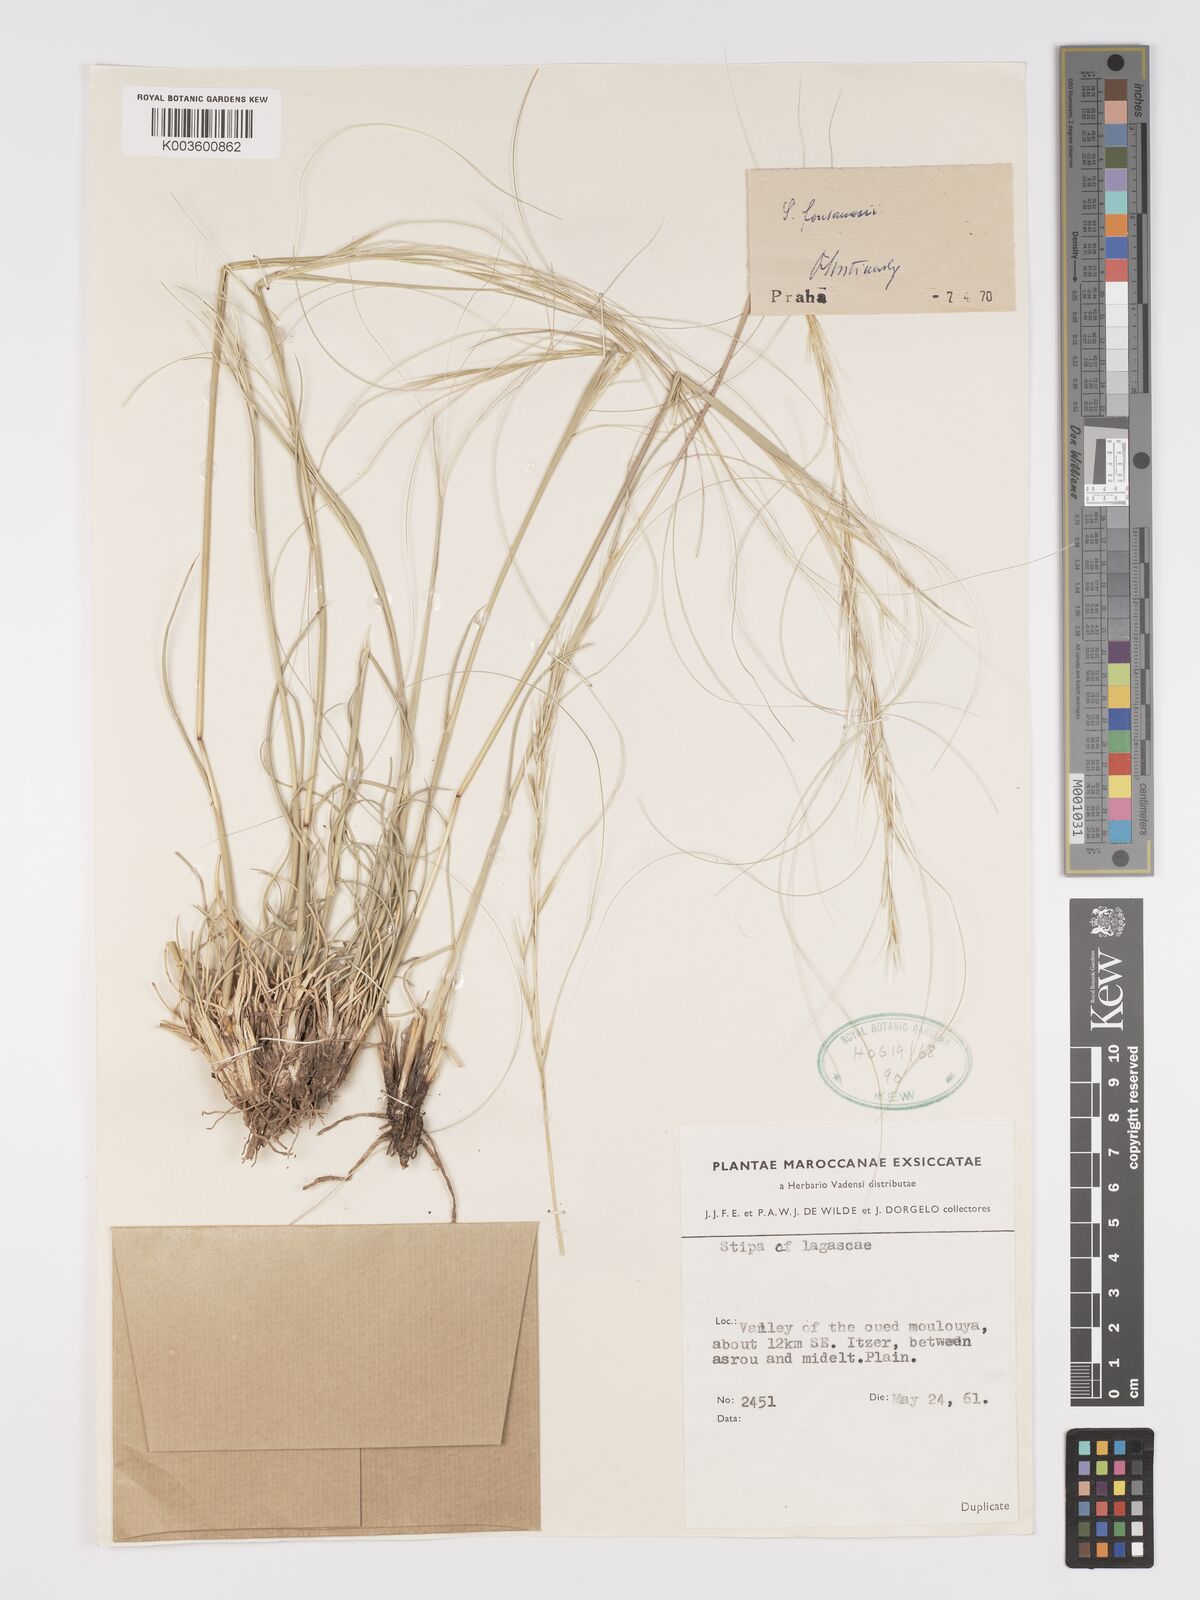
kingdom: Plantae
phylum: Tracheophyta
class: Liliopsida
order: Poales
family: Poaceae
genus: Stipa
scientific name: Stipa holosericea
